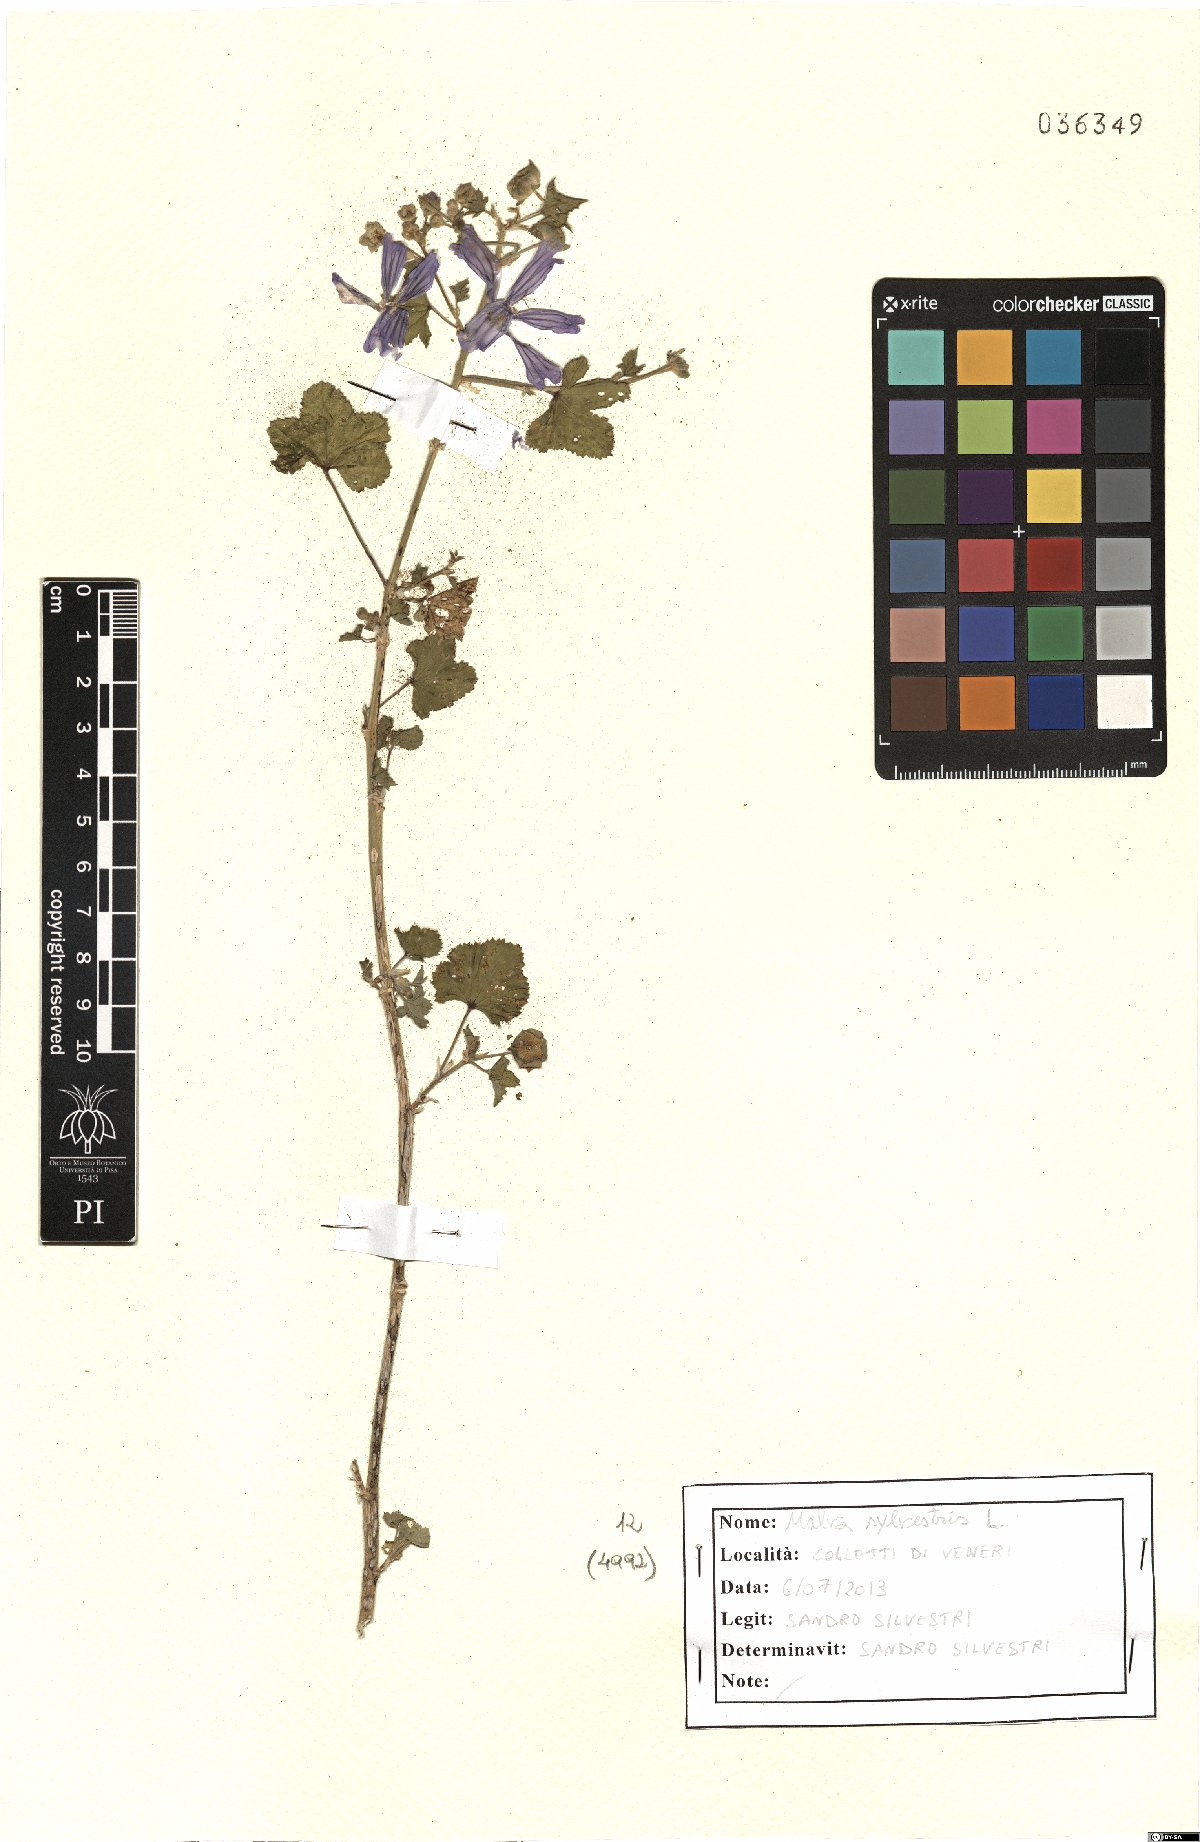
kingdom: Plantae
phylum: Tracheophyta
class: Magnoliopsida
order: Malvales
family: Malvaceae
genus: Malva
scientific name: Malva sylvestris
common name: Common mallow
